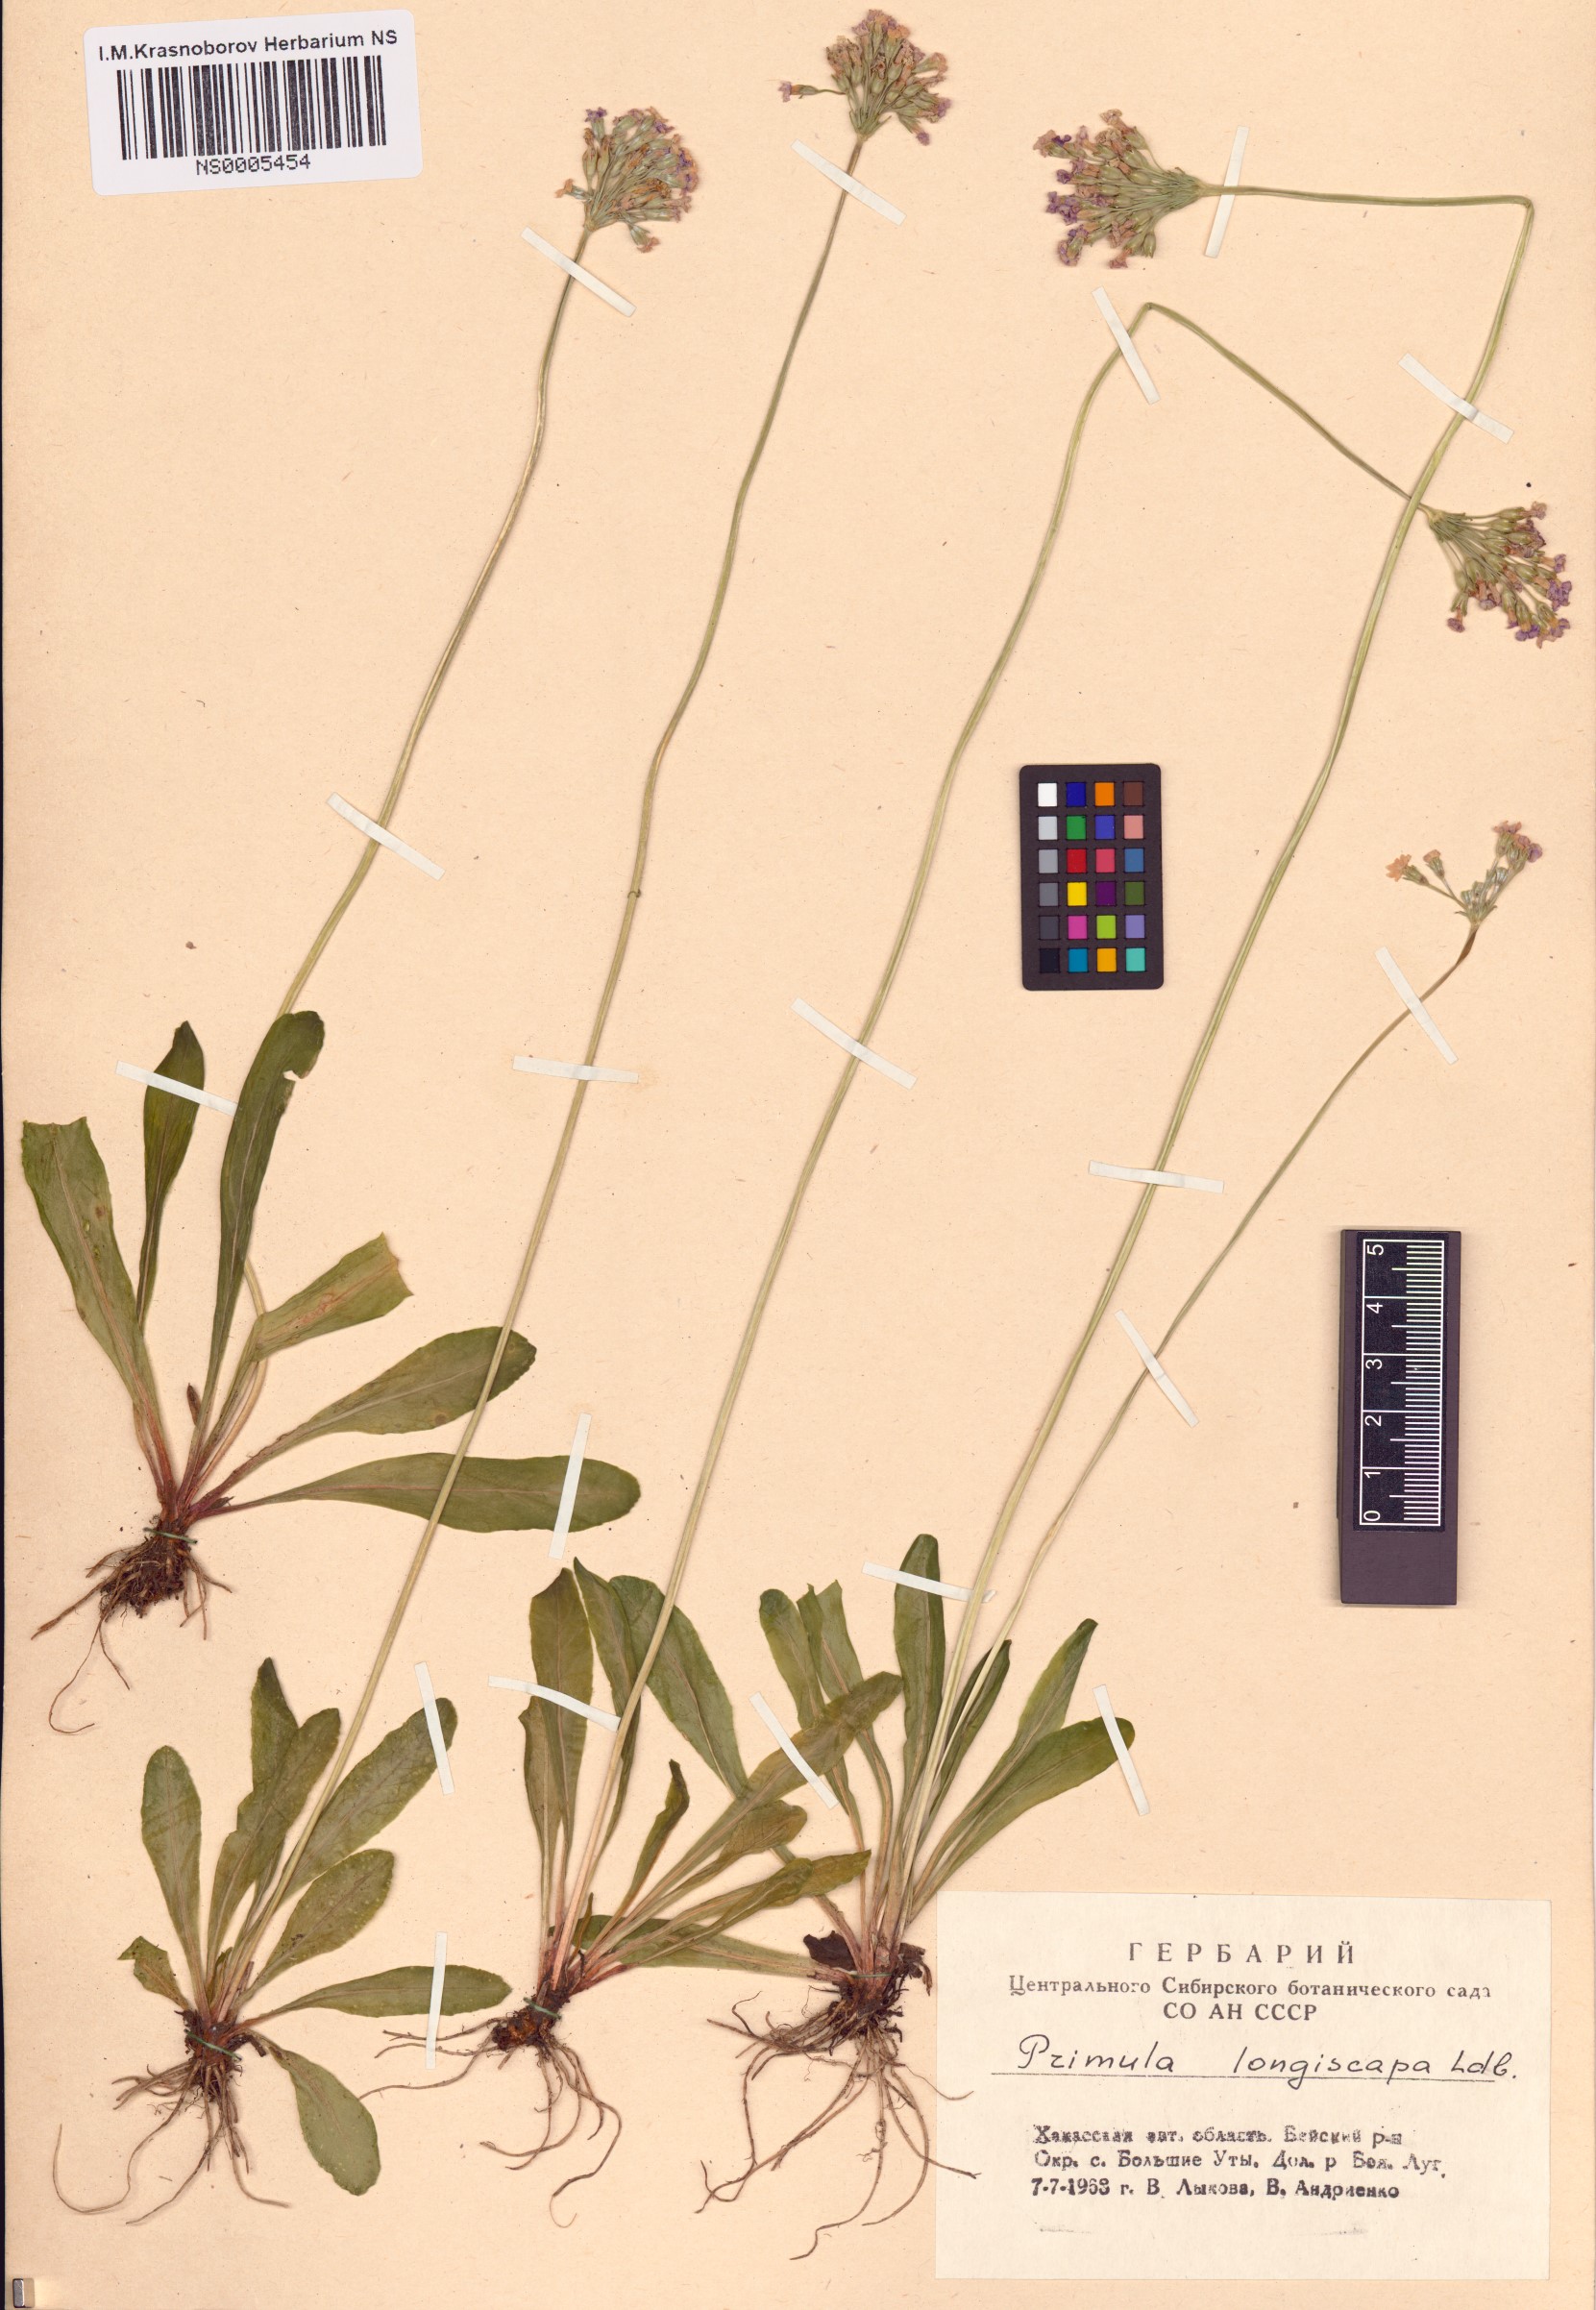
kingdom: Plantae
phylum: Tracheophyta
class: Magnoliopsida
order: Ericales
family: Primulaceae
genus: Primula
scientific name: Primula longiscapa
